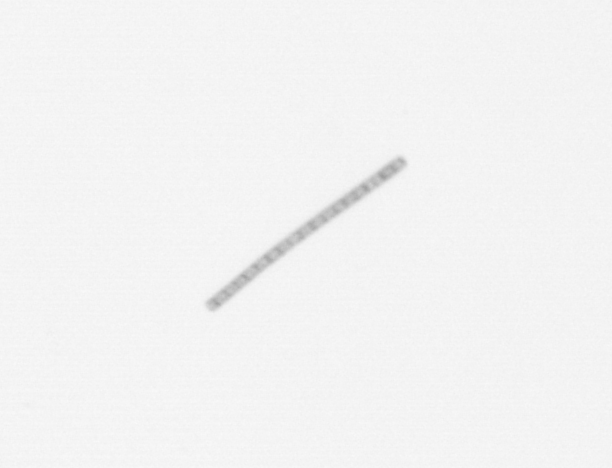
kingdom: Chromista
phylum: Ochrophyta
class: Bacillariophyceae
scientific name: Bacillariophyceae
